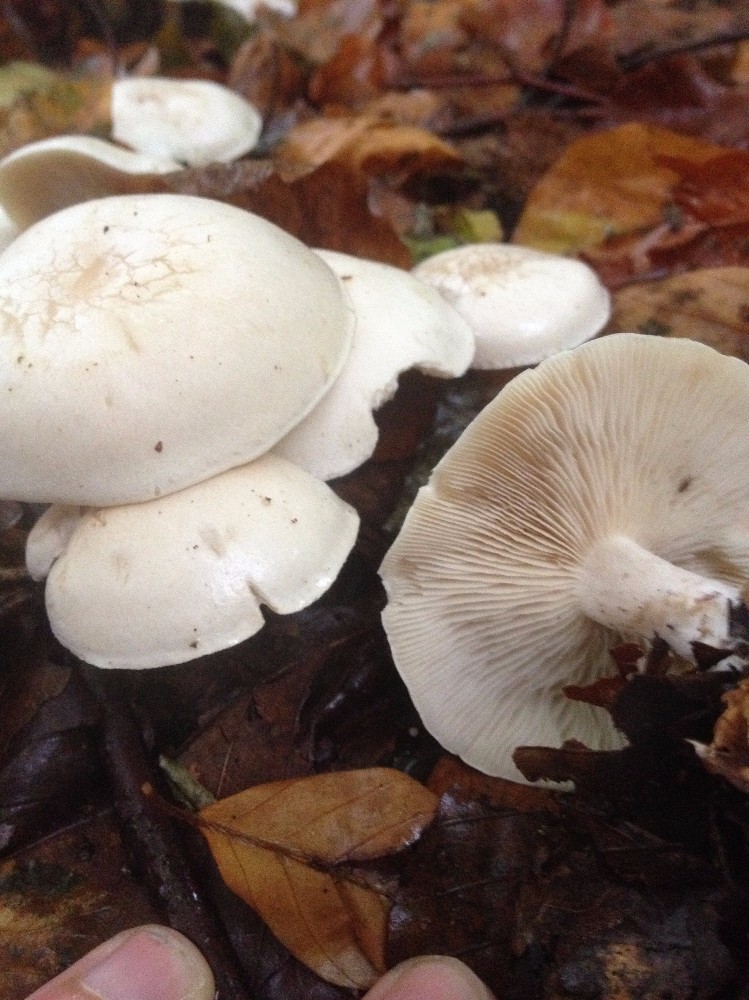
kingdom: Fungi
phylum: Basidiomycota
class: Agaricomycetes
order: Agaricales
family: Tricholomataceae
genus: Leucocybe
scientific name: Leucocybe connata
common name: knippe-tragthat
